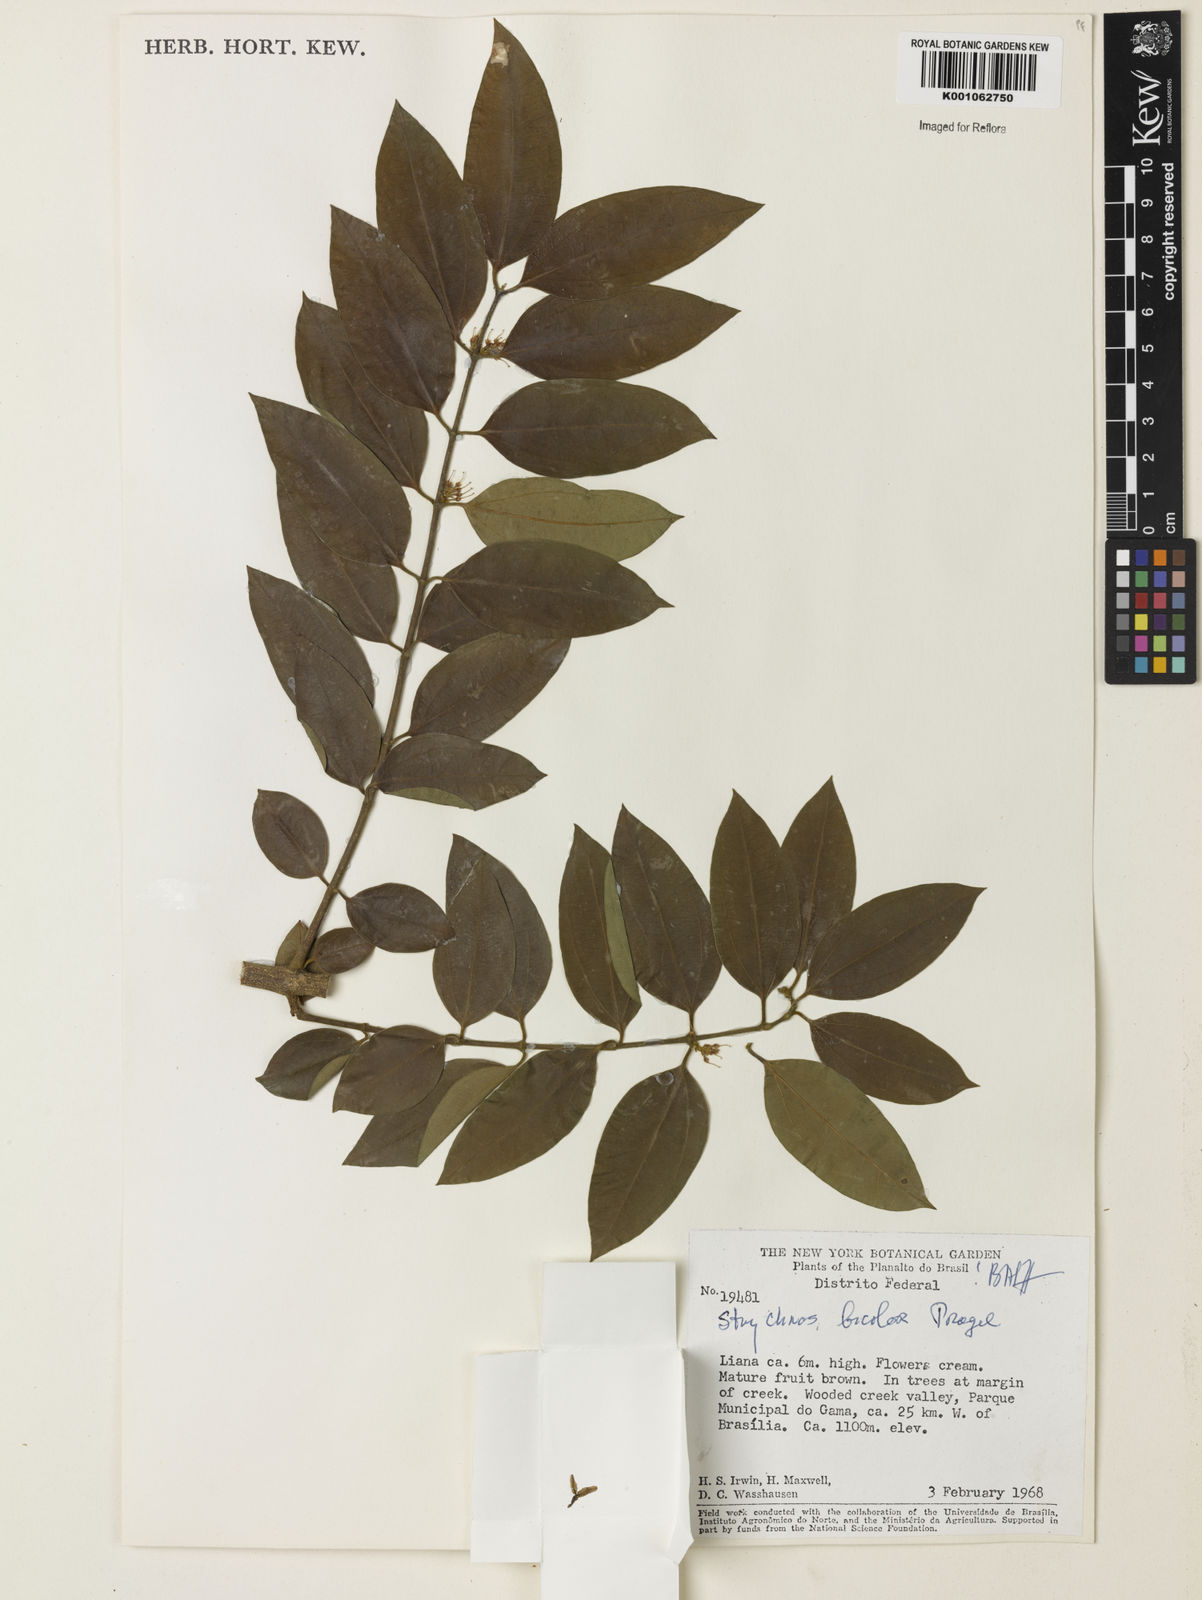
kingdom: Plantae
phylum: Tracheophyta
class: Magnoliopsida
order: Gentianales
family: Loganiaceae
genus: Strychnos
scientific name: Strychnos bicolor
